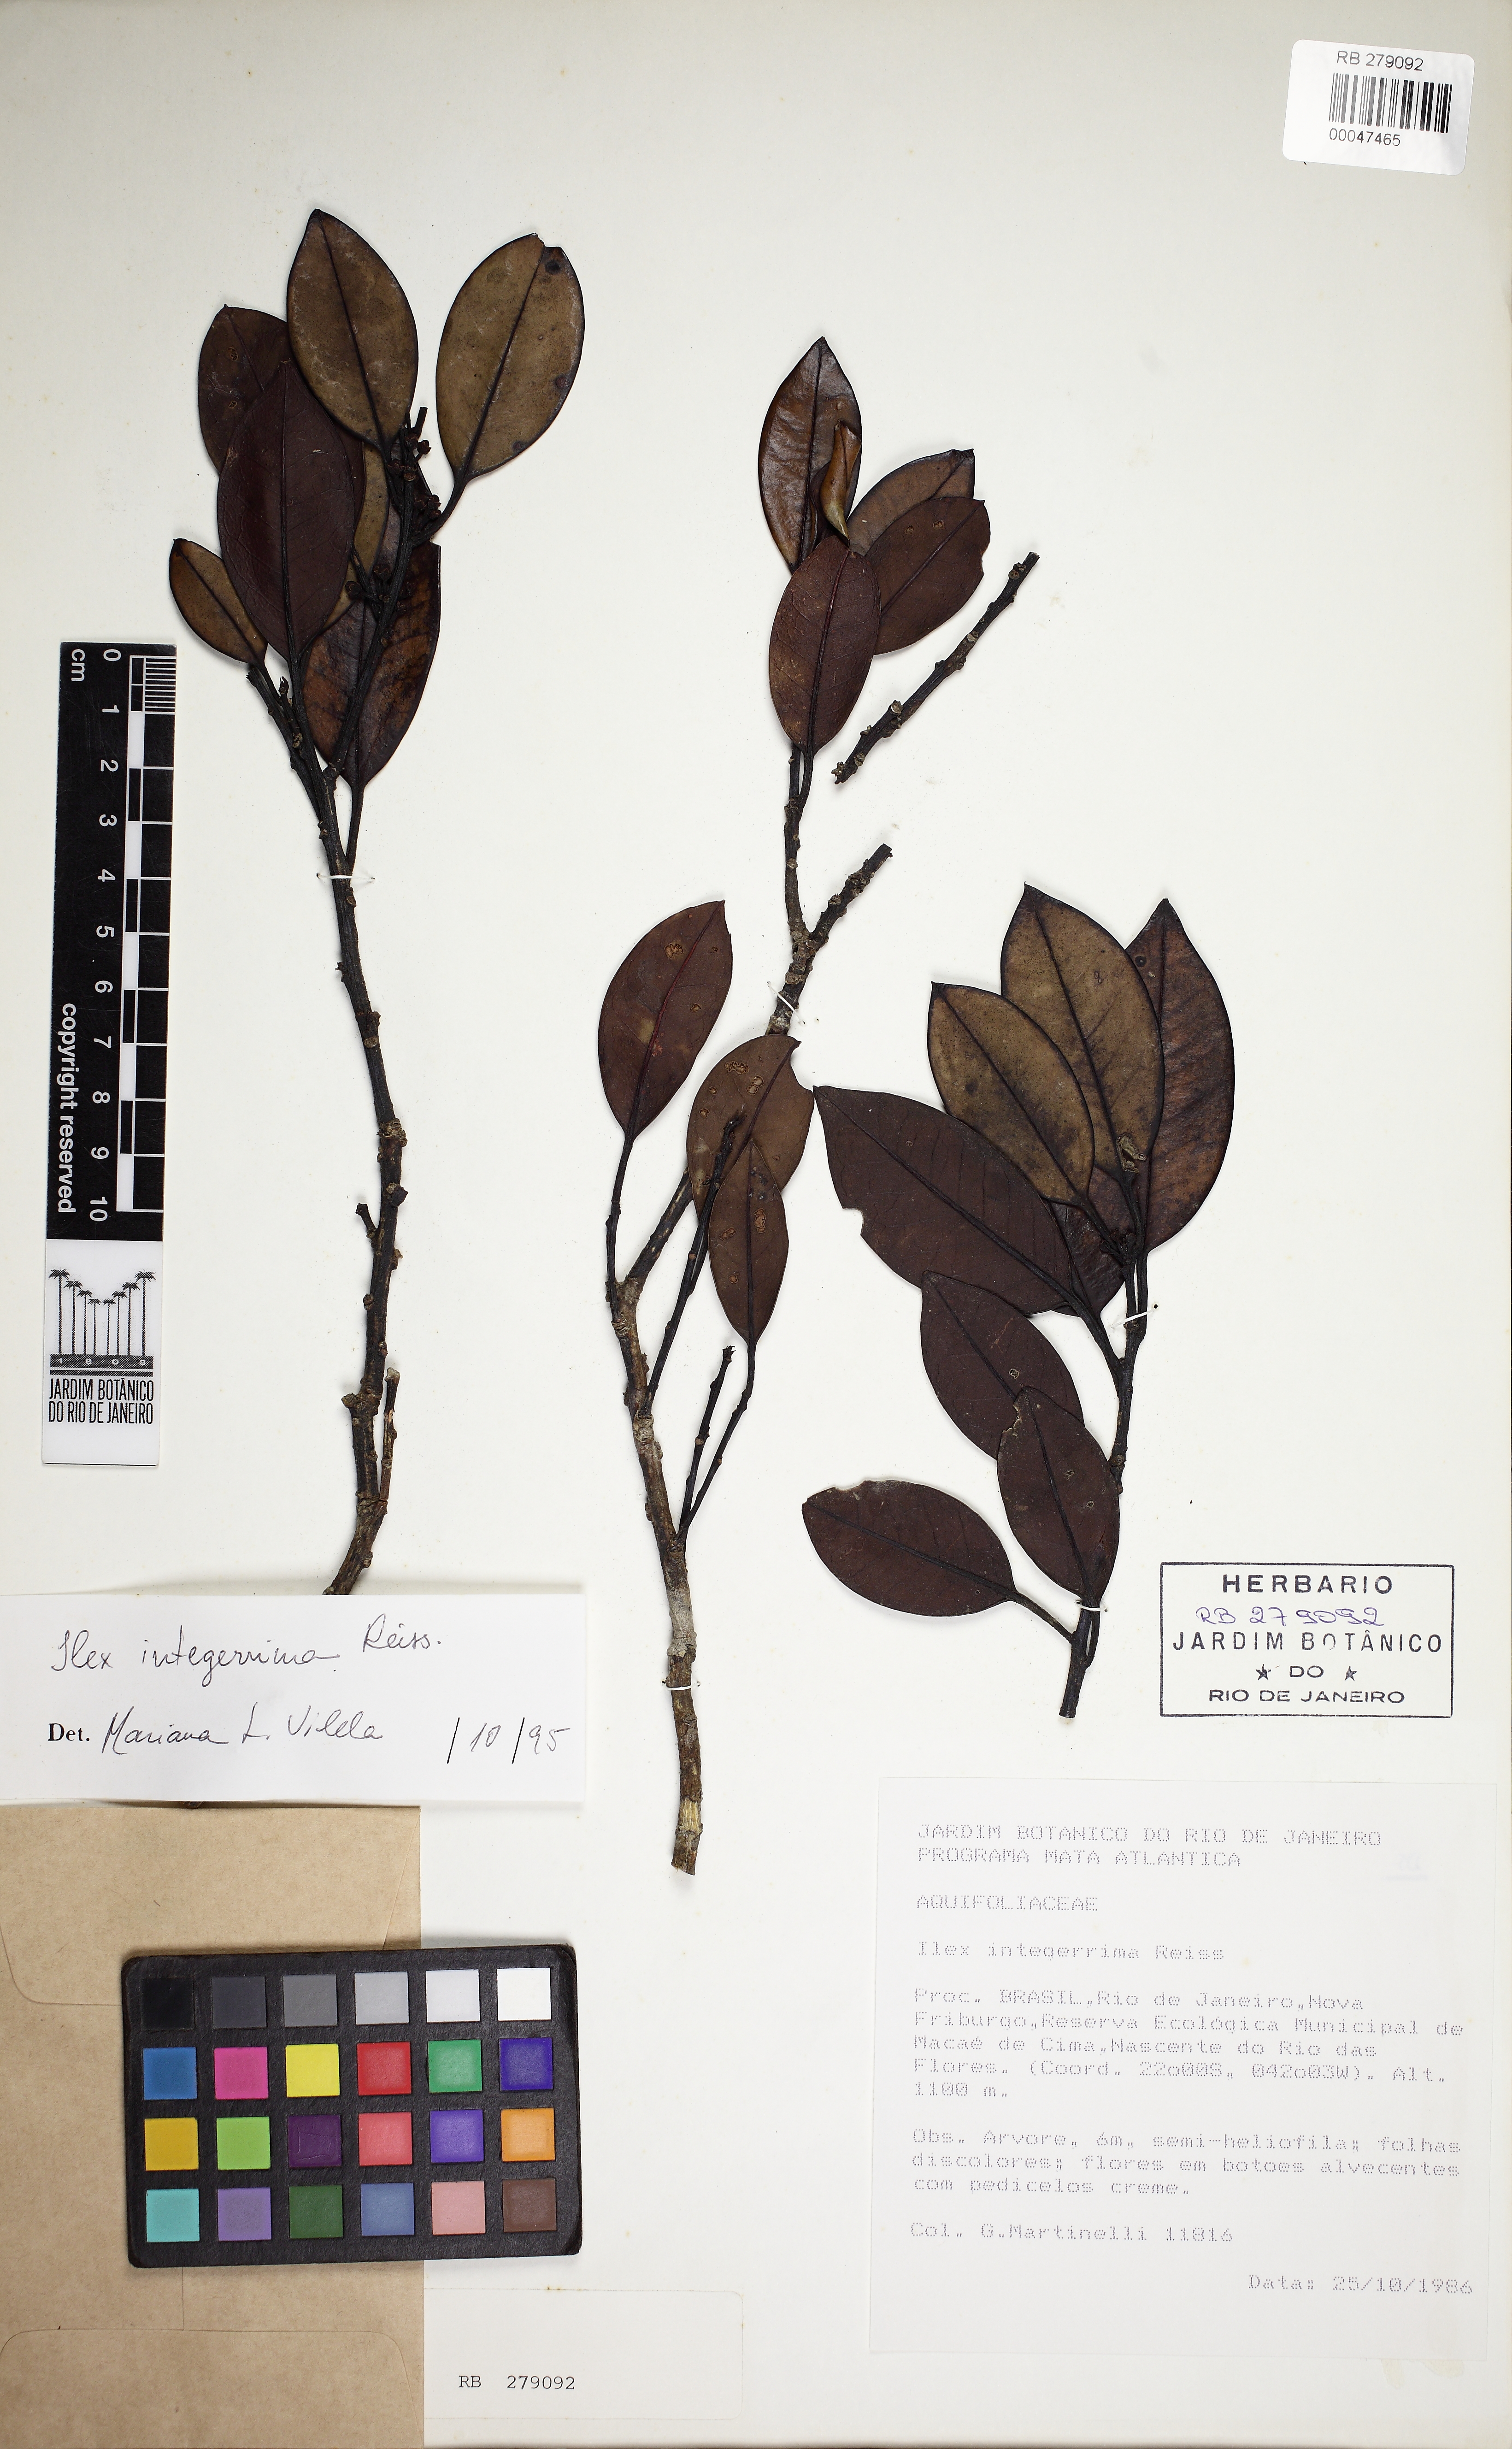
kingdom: Plantae
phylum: Tracheophyta
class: Magnoliopsida
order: Aquifoliales
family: Aquifoliaceae
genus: Ilex
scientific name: Ilex integerrima
